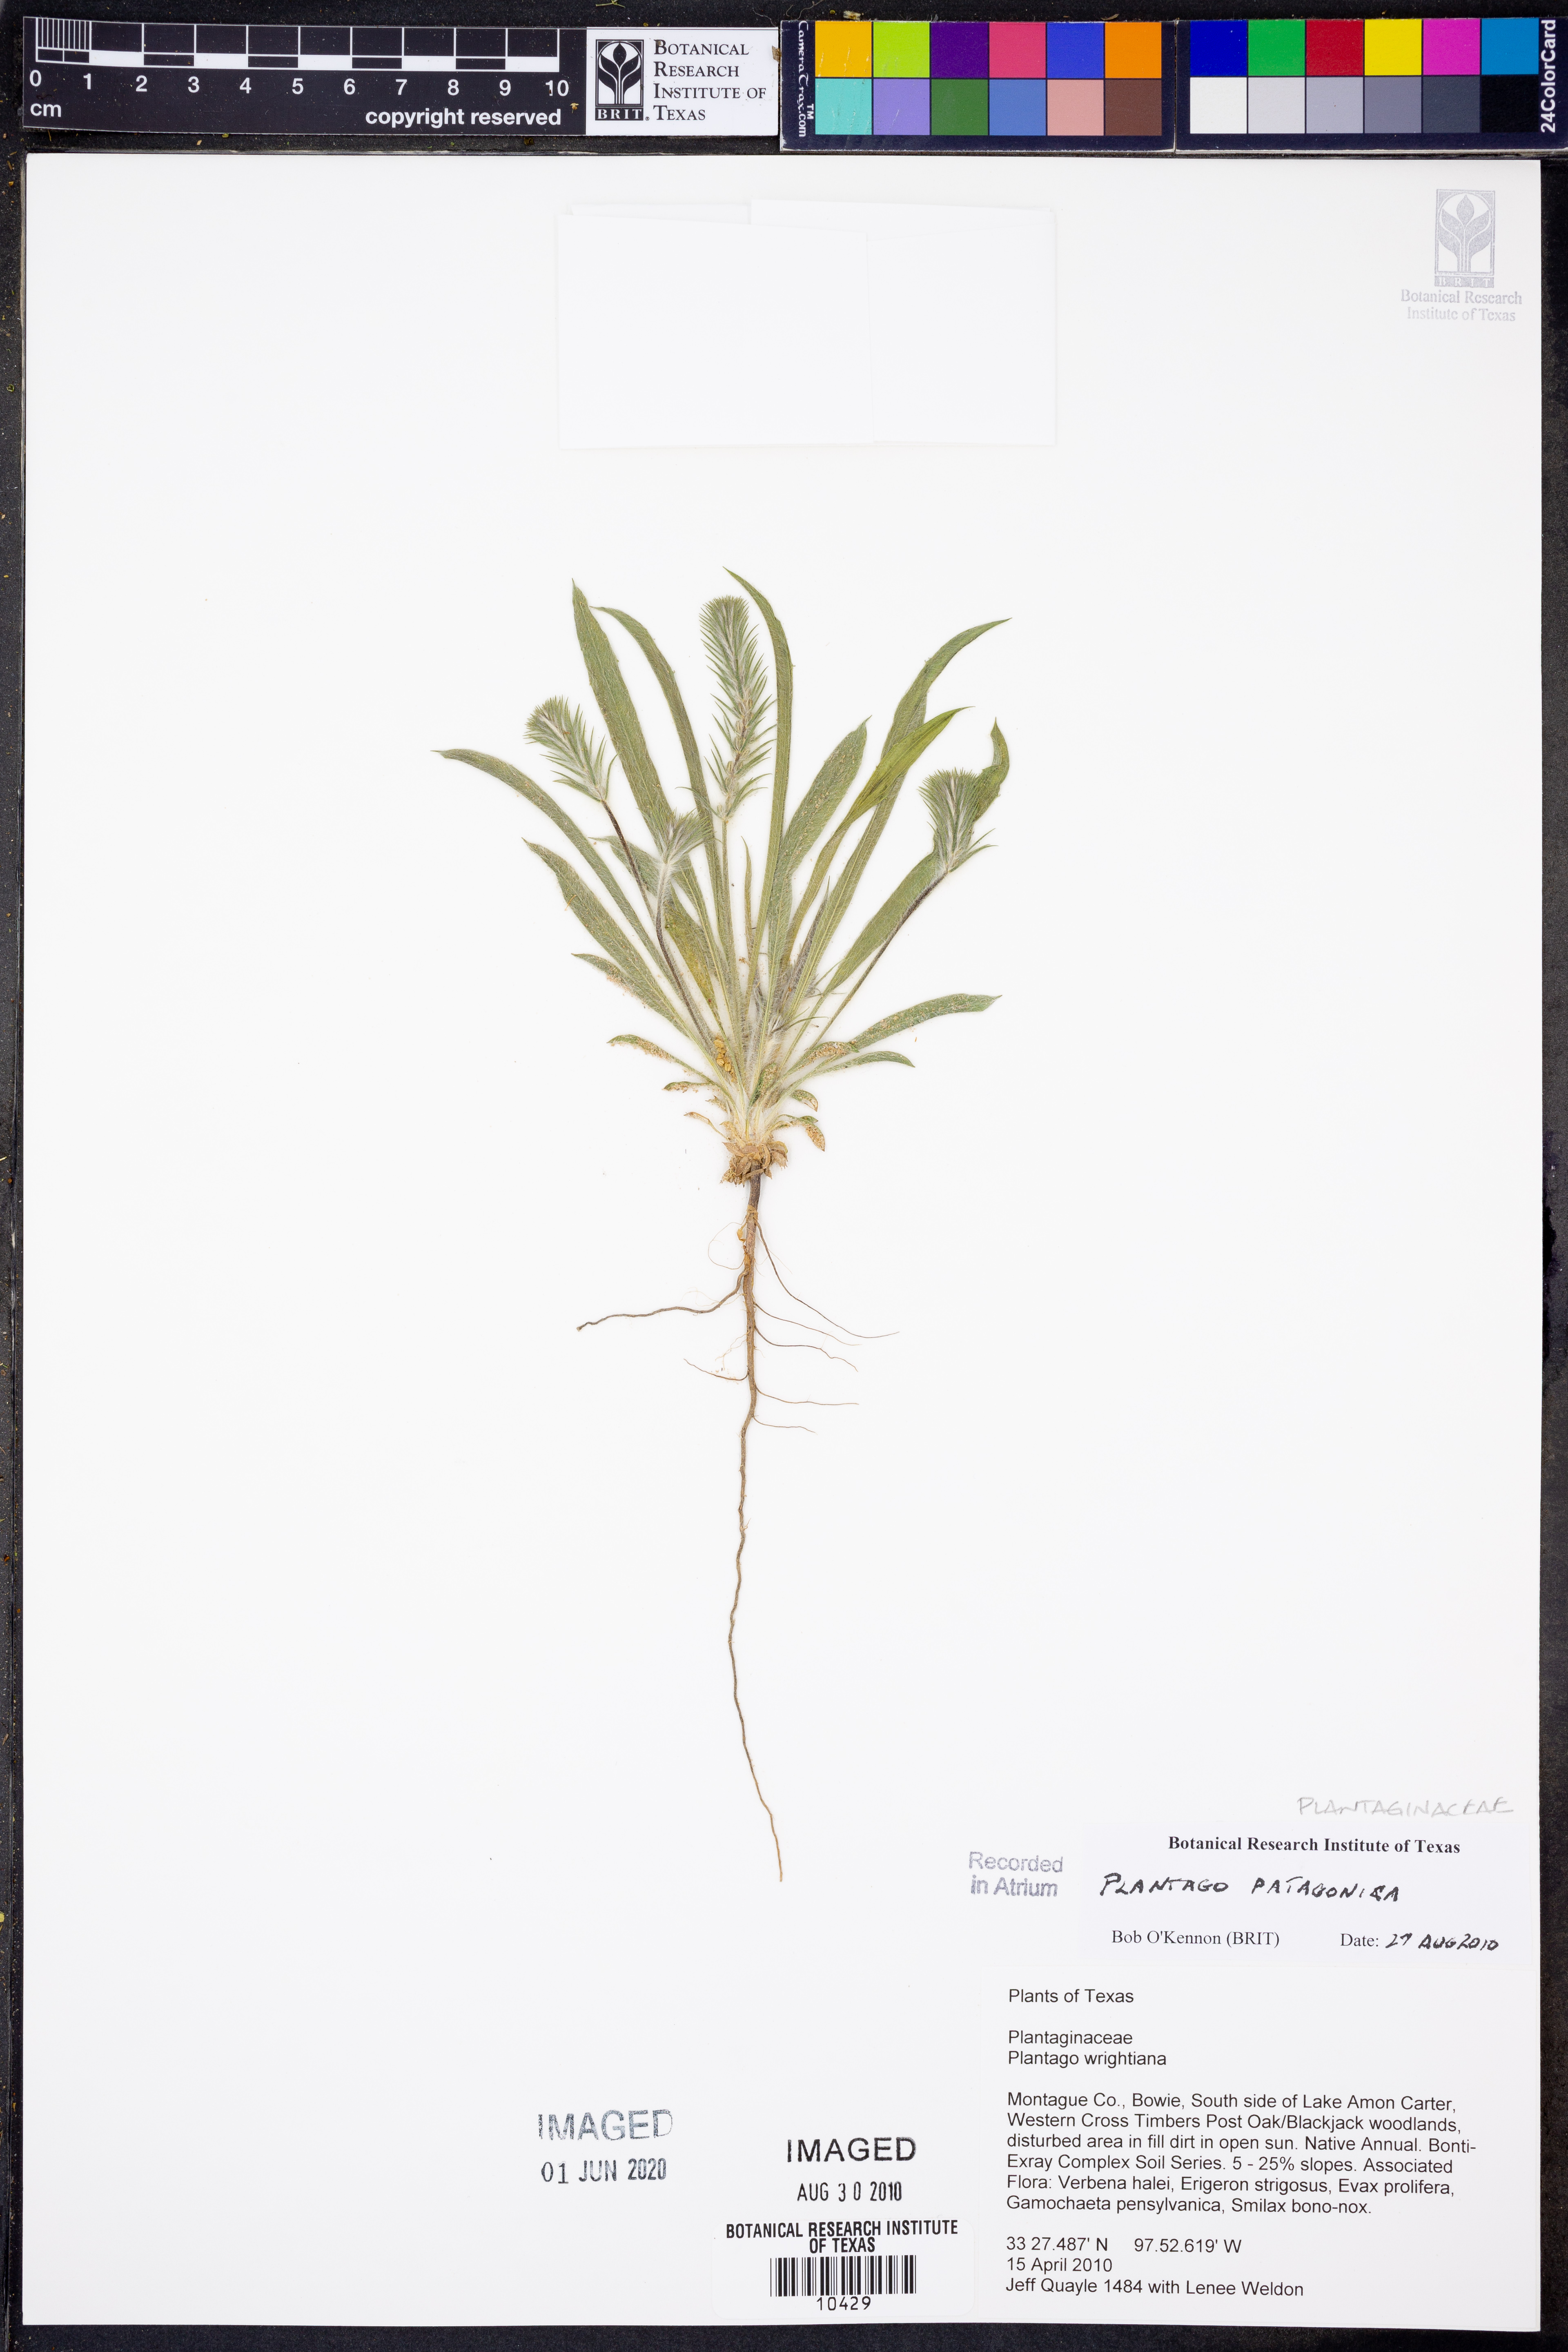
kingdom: Plantae
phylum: Tracheophyta
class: Magnoliopsida
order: Lamiales
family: Plantaginaceae
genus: Plantago
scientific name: Plantago patagonica
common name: Patagonia indian-wheat
